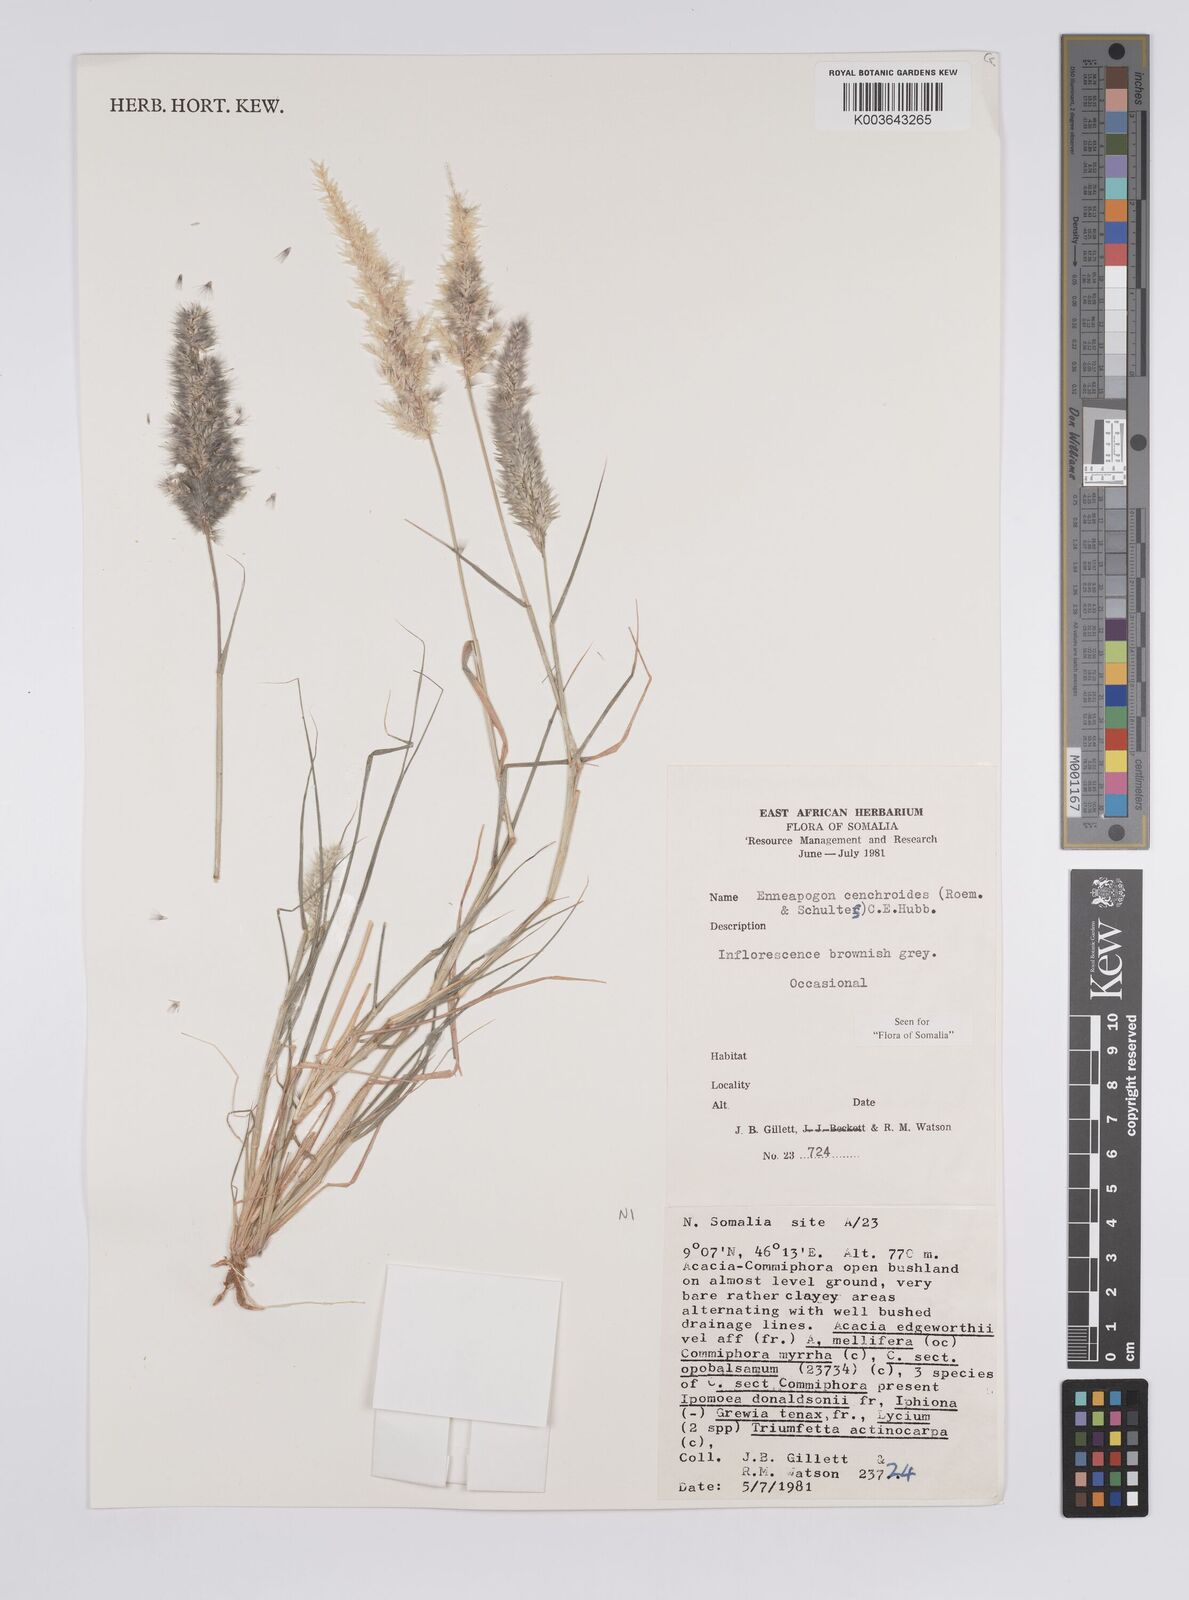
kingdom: Plantae
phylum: Tracheophyta
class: Liliopsida
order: Poales
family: Poaceae
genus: Enneapogon
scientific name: Enneapogon cenchroides
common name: Soft feather pappusgrass
